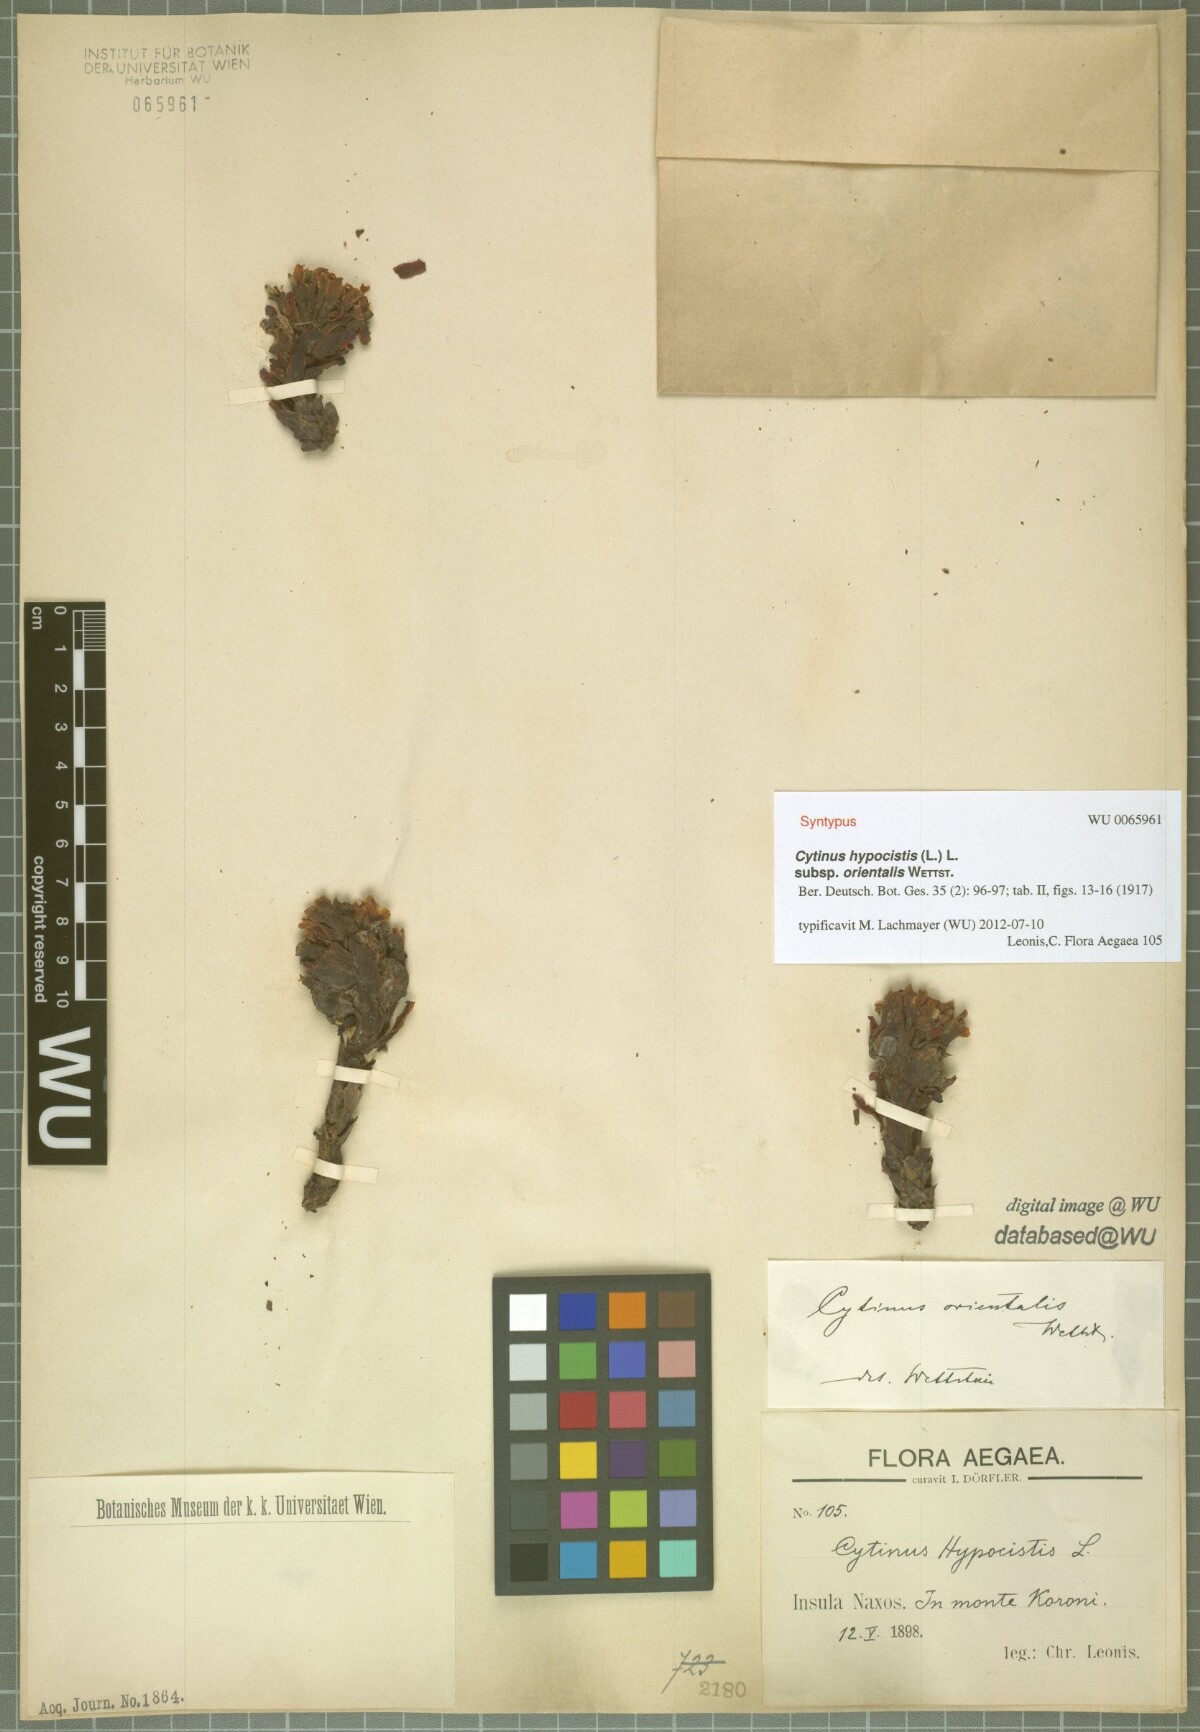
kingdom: Plantae
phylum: Tracheophyta
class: Magnoliopsida
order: Malvales
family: Cytinaceae
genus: Cytinus
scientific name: Cytinus ruber
